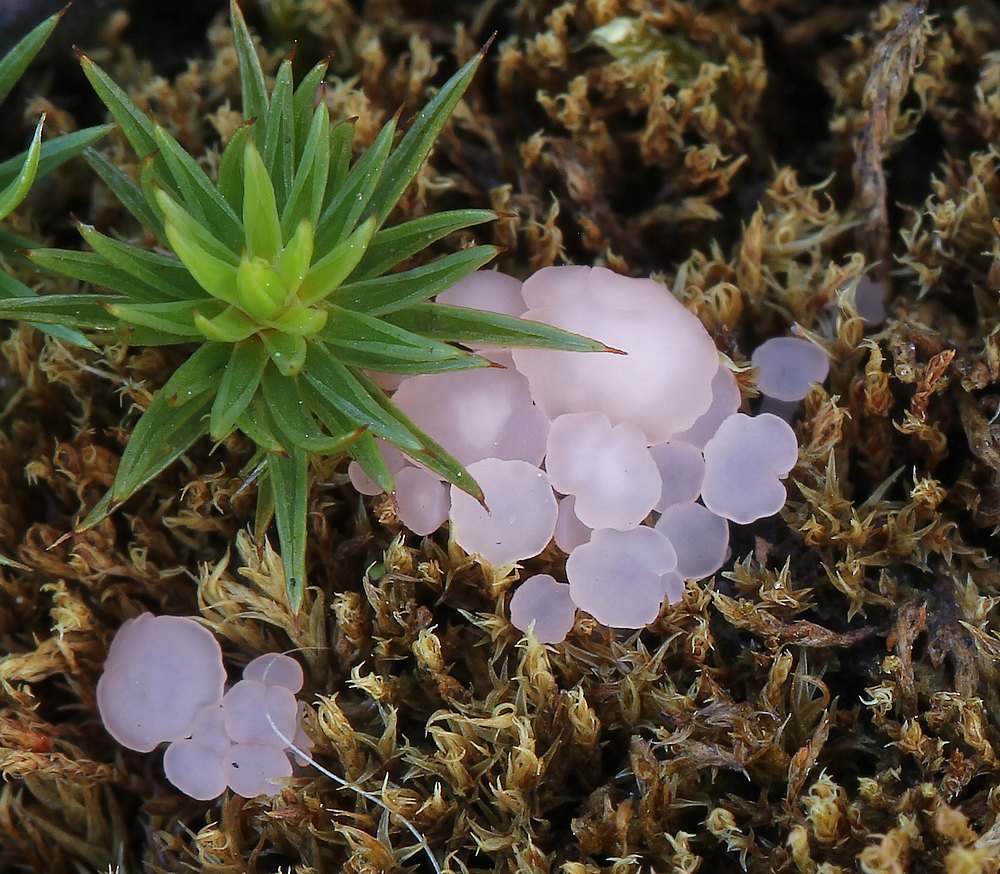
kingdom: Fungi
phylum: Ascomycota
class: Leotiomycetes
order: Helotiales
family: Hyaloscyphaceae
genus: Roseodiscus
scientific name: Roseodiscus formosus
